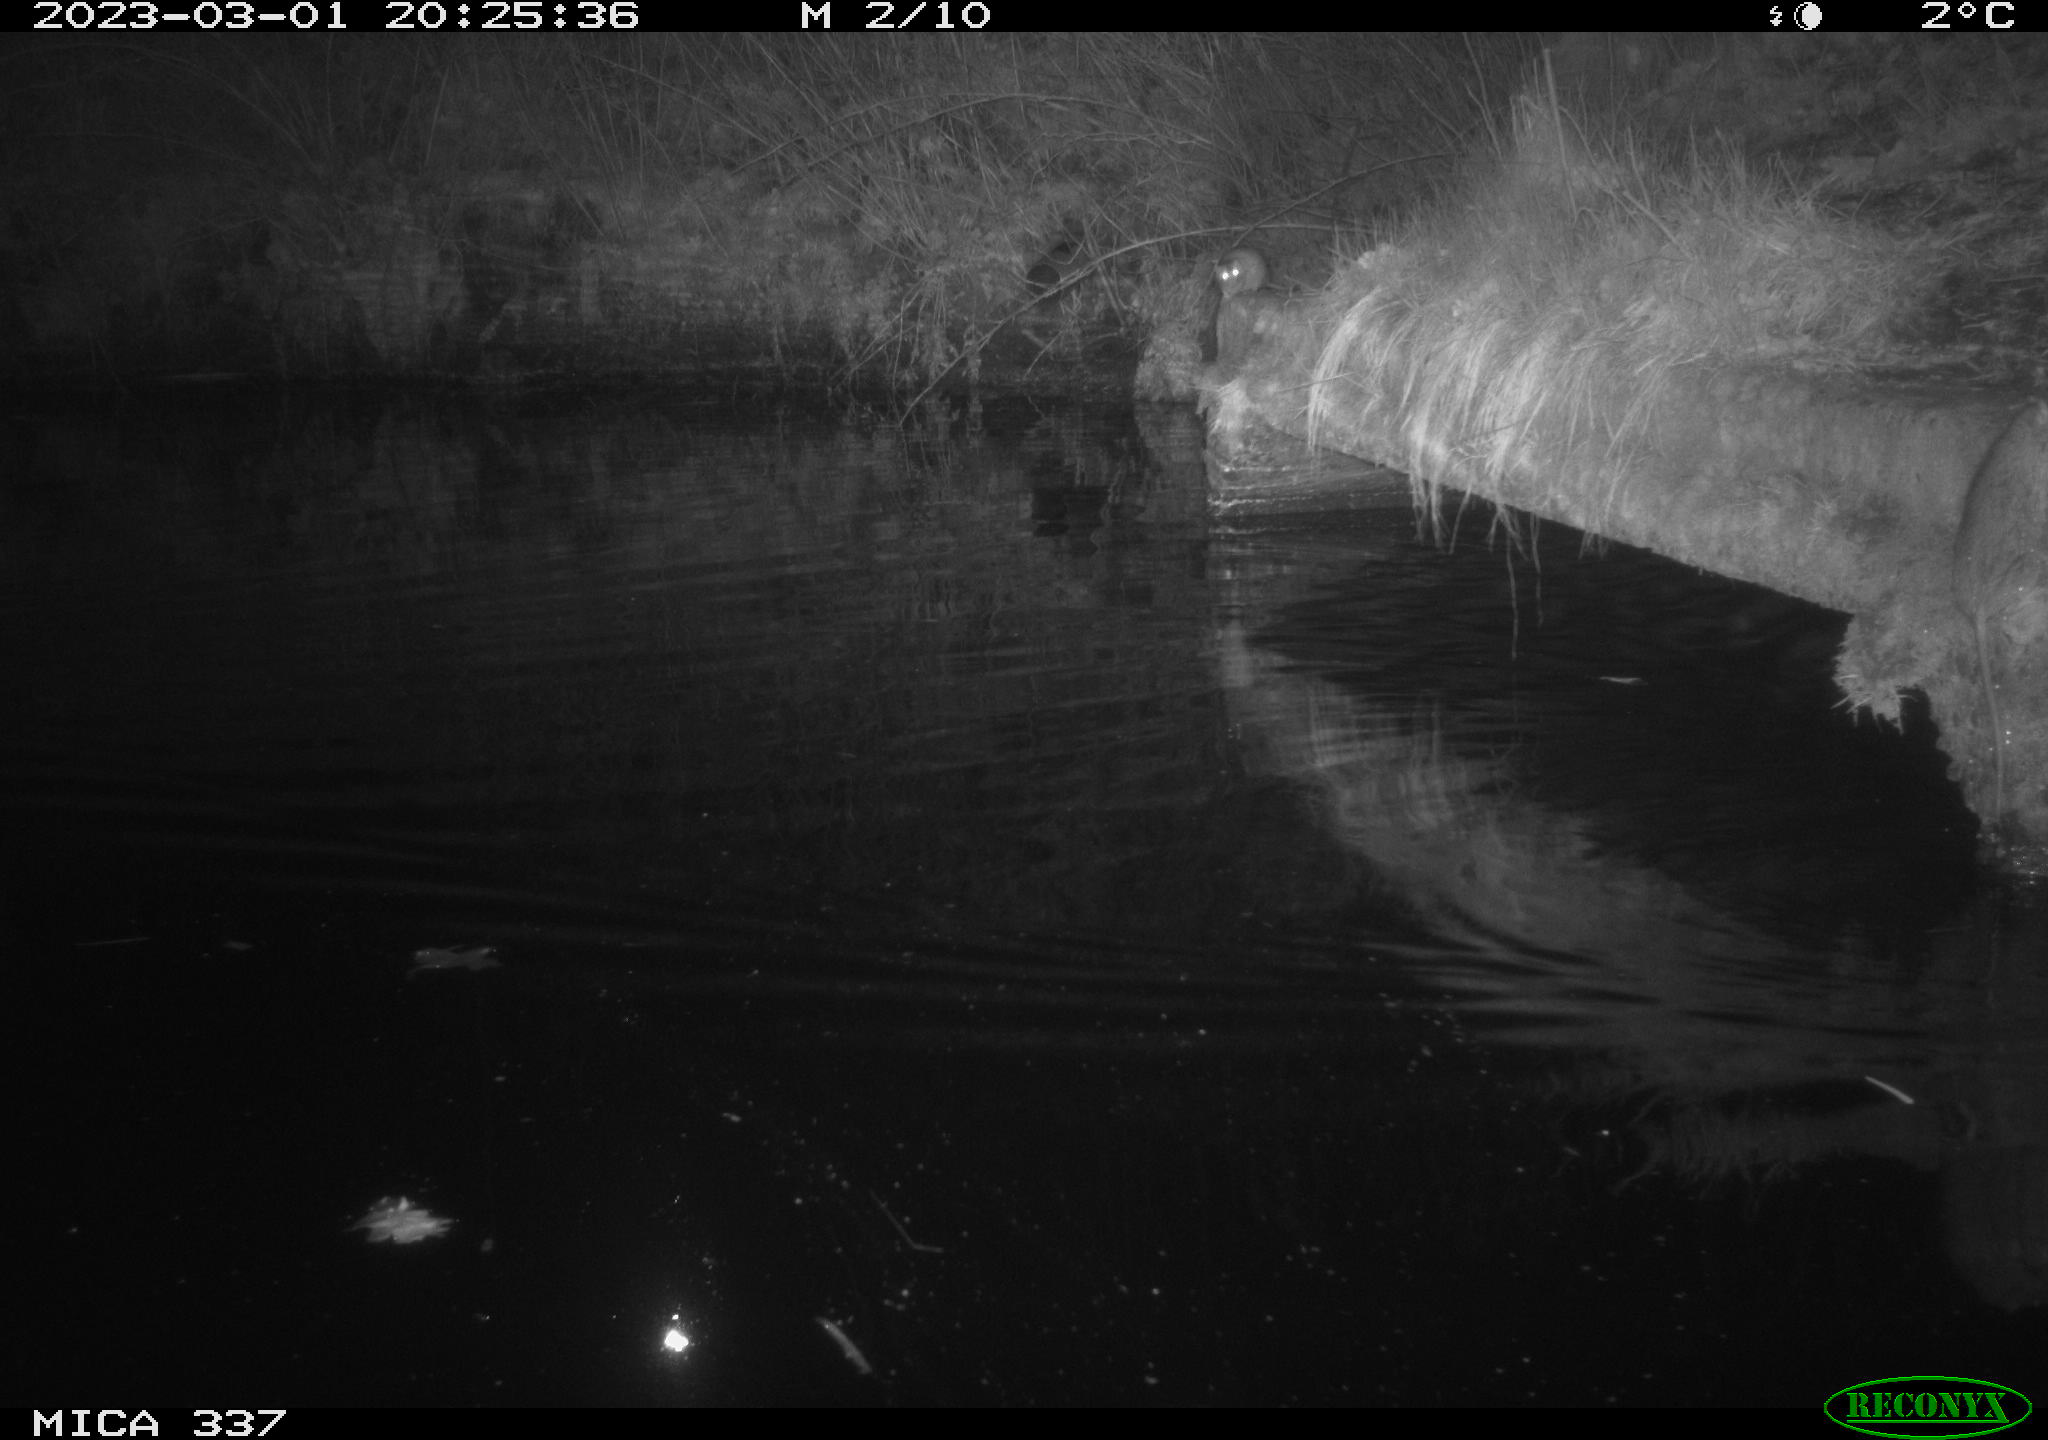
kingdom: Animalia
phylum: Chordata
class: Mammalia
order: Rodentia
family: Muridae
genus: Rattus
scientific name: Rattus norvegicus
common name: Brown rat
